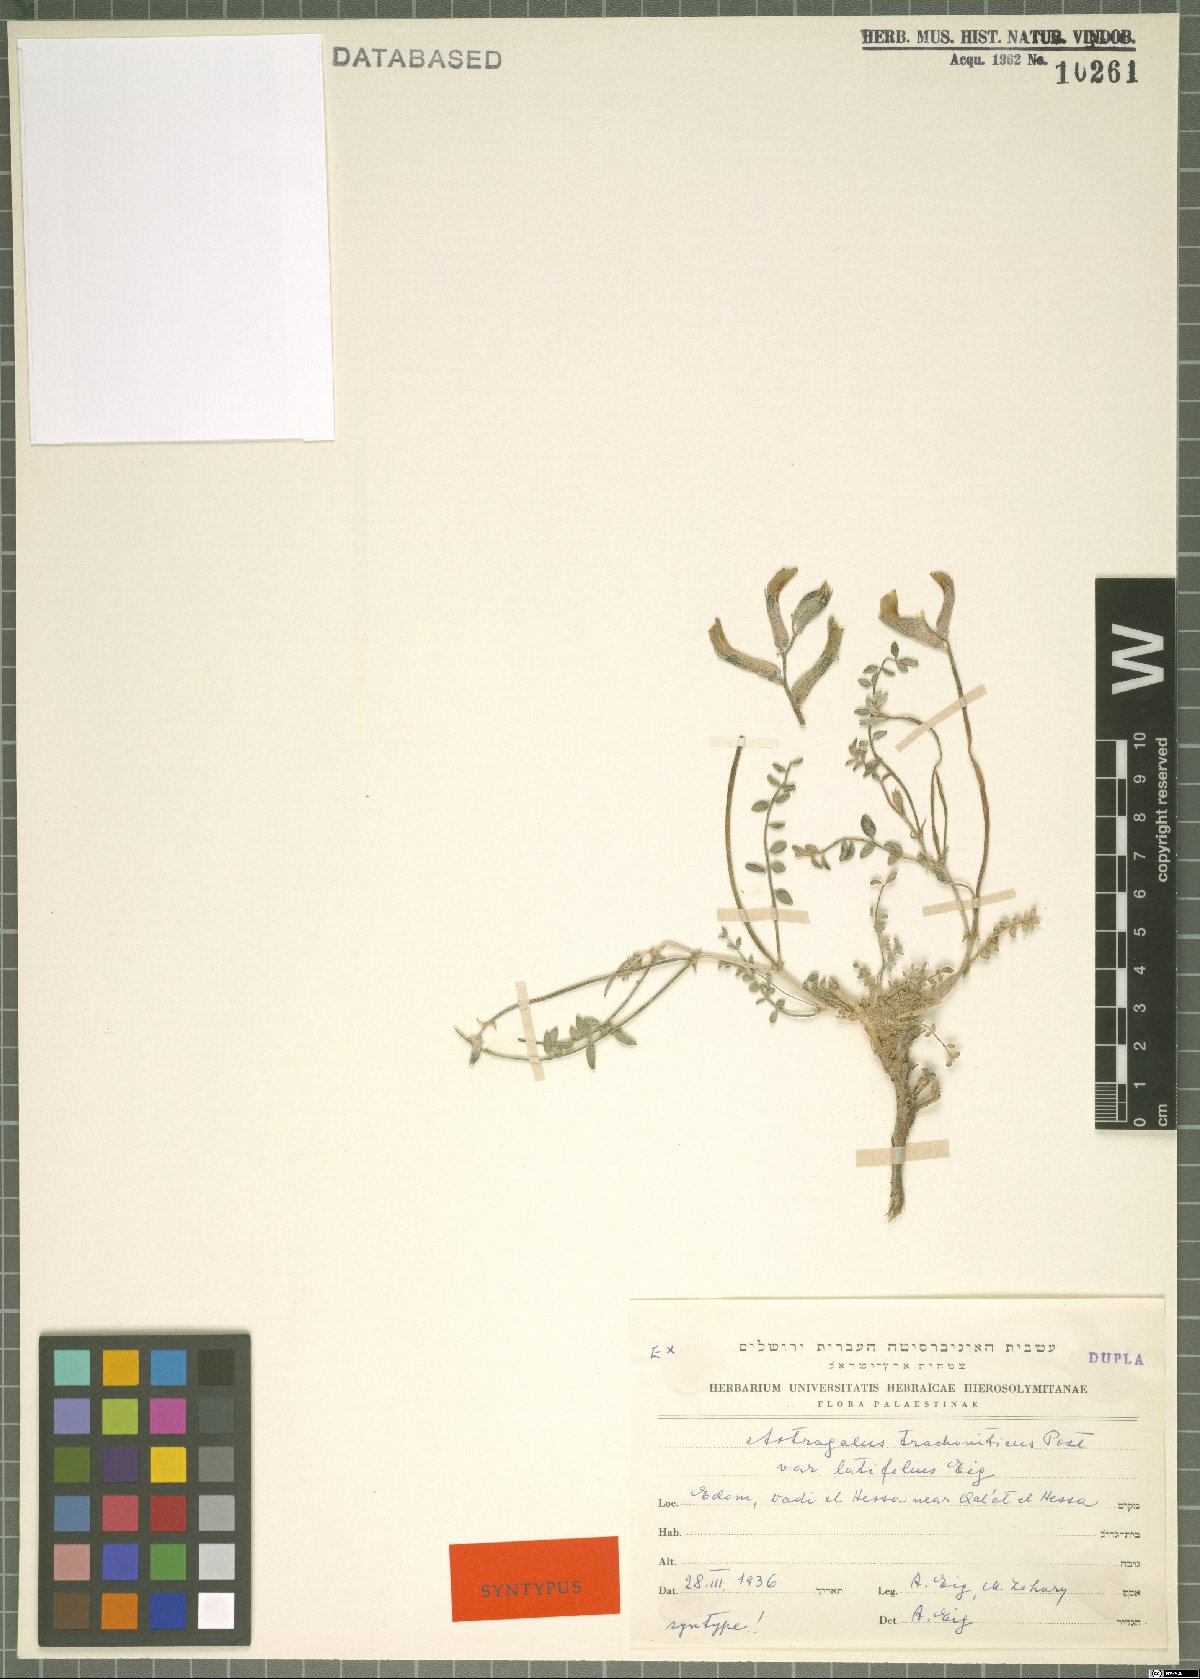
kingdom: Plantae
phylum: Tracheophyta
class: Magnoliopsida
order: Fabales
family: Fabaceae
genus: Astragalus
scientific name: Astragalus trachoniticus
